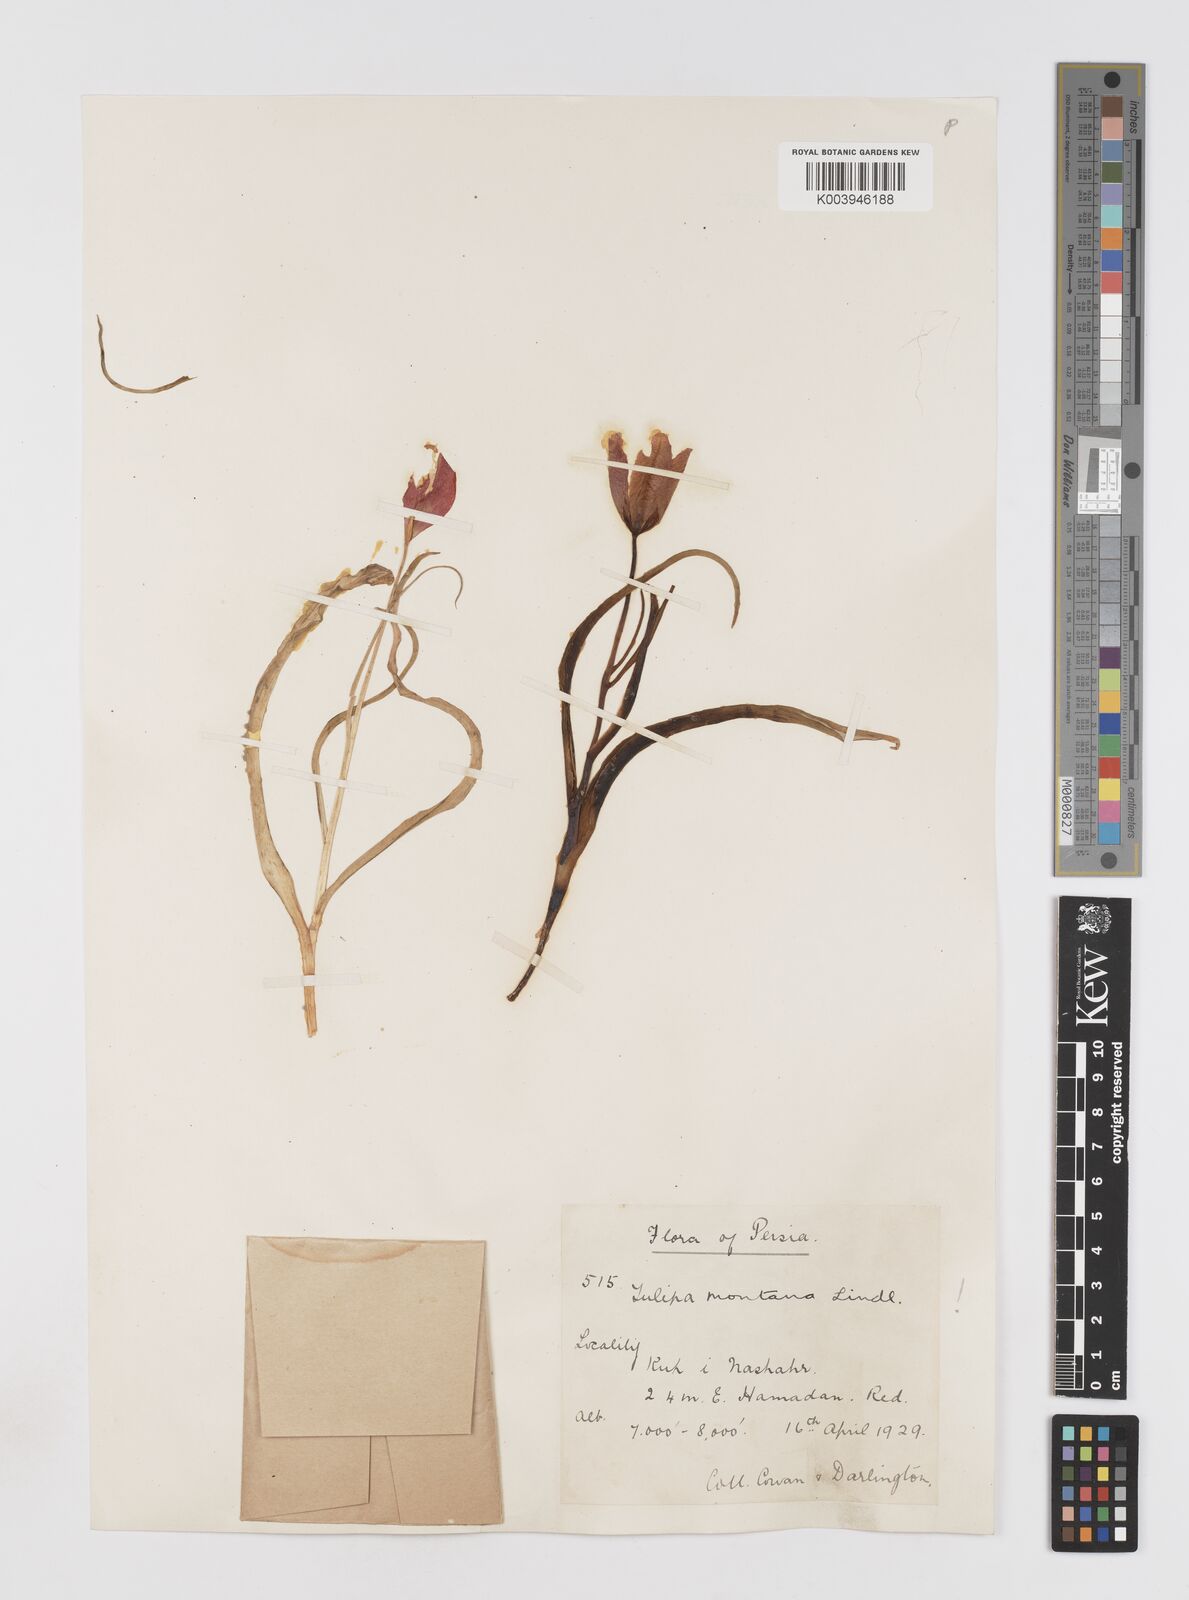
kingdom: Plantae
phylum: Tracheophyta
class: Liliopsida
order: Liliales
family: Liliaceae
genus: Tulipa
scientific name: Tulipa montana
